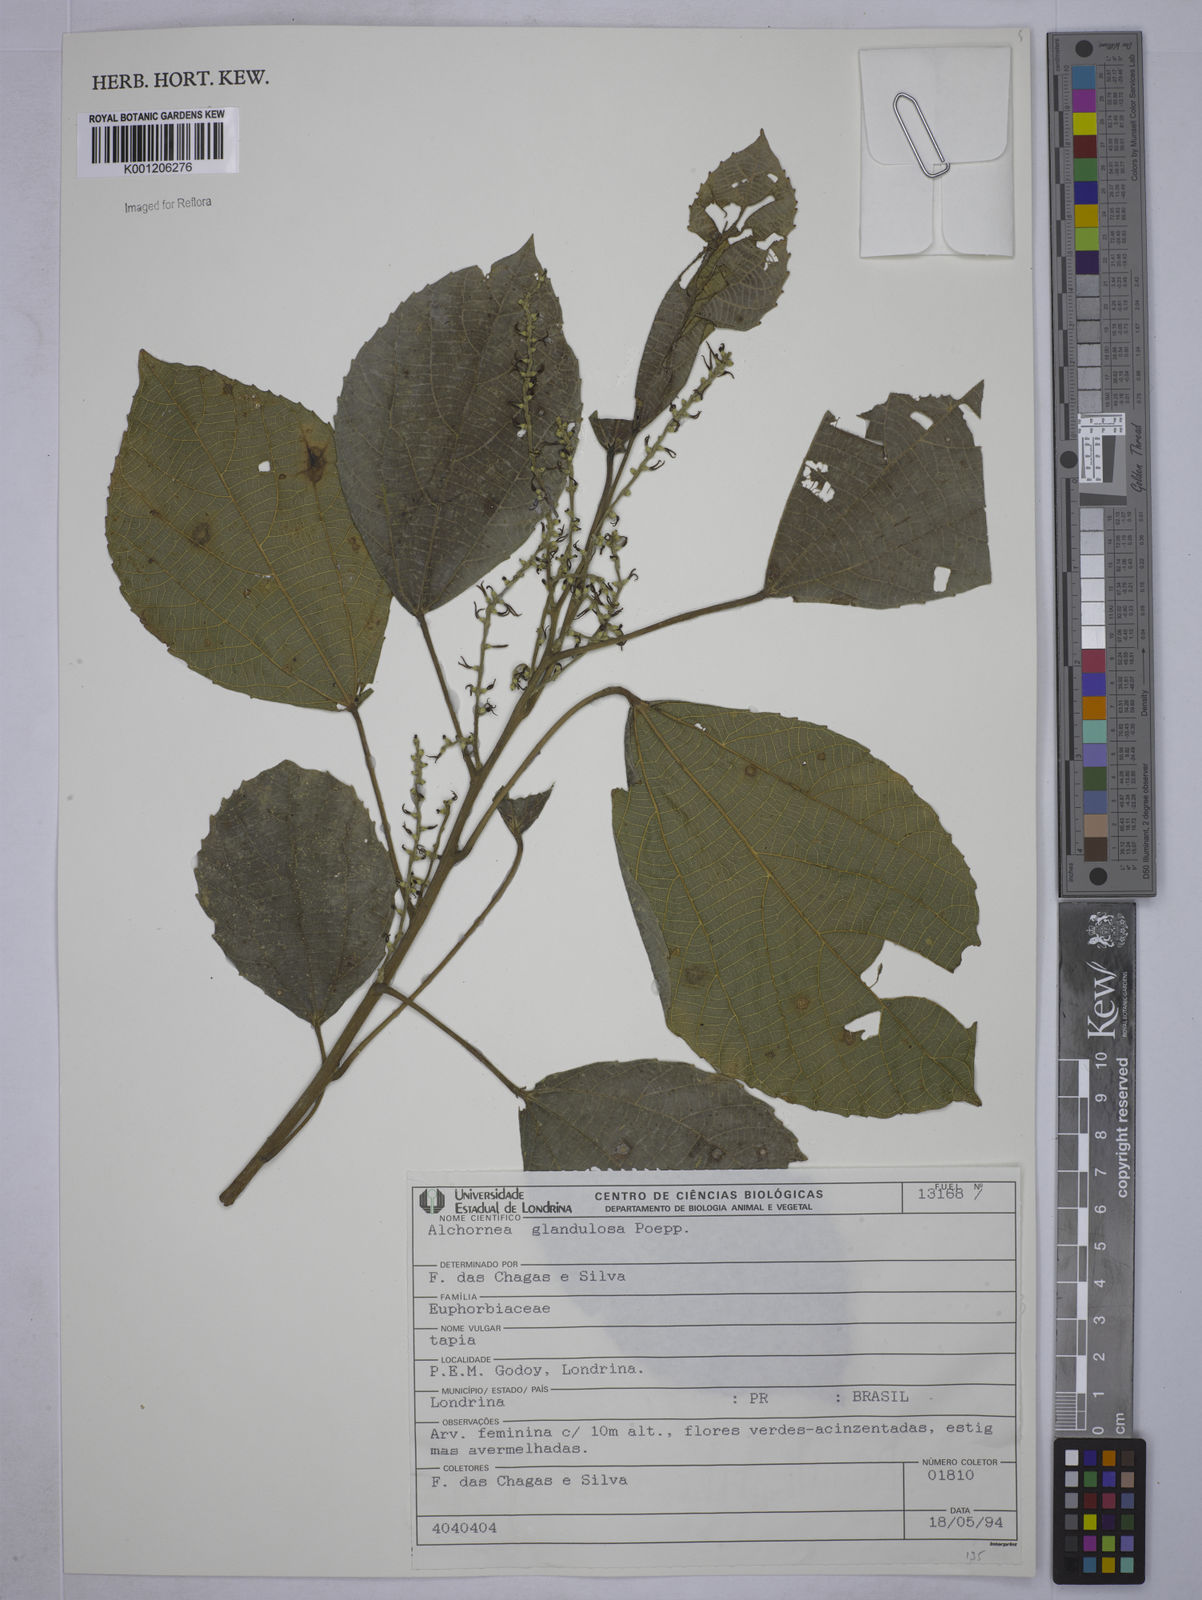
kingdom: Plantae
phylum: Tracheophyta
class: Magnoliopsida
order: Malpighiales
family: Euphorbiaceae
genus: Alchornea
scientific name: Alchornea glandulosa
